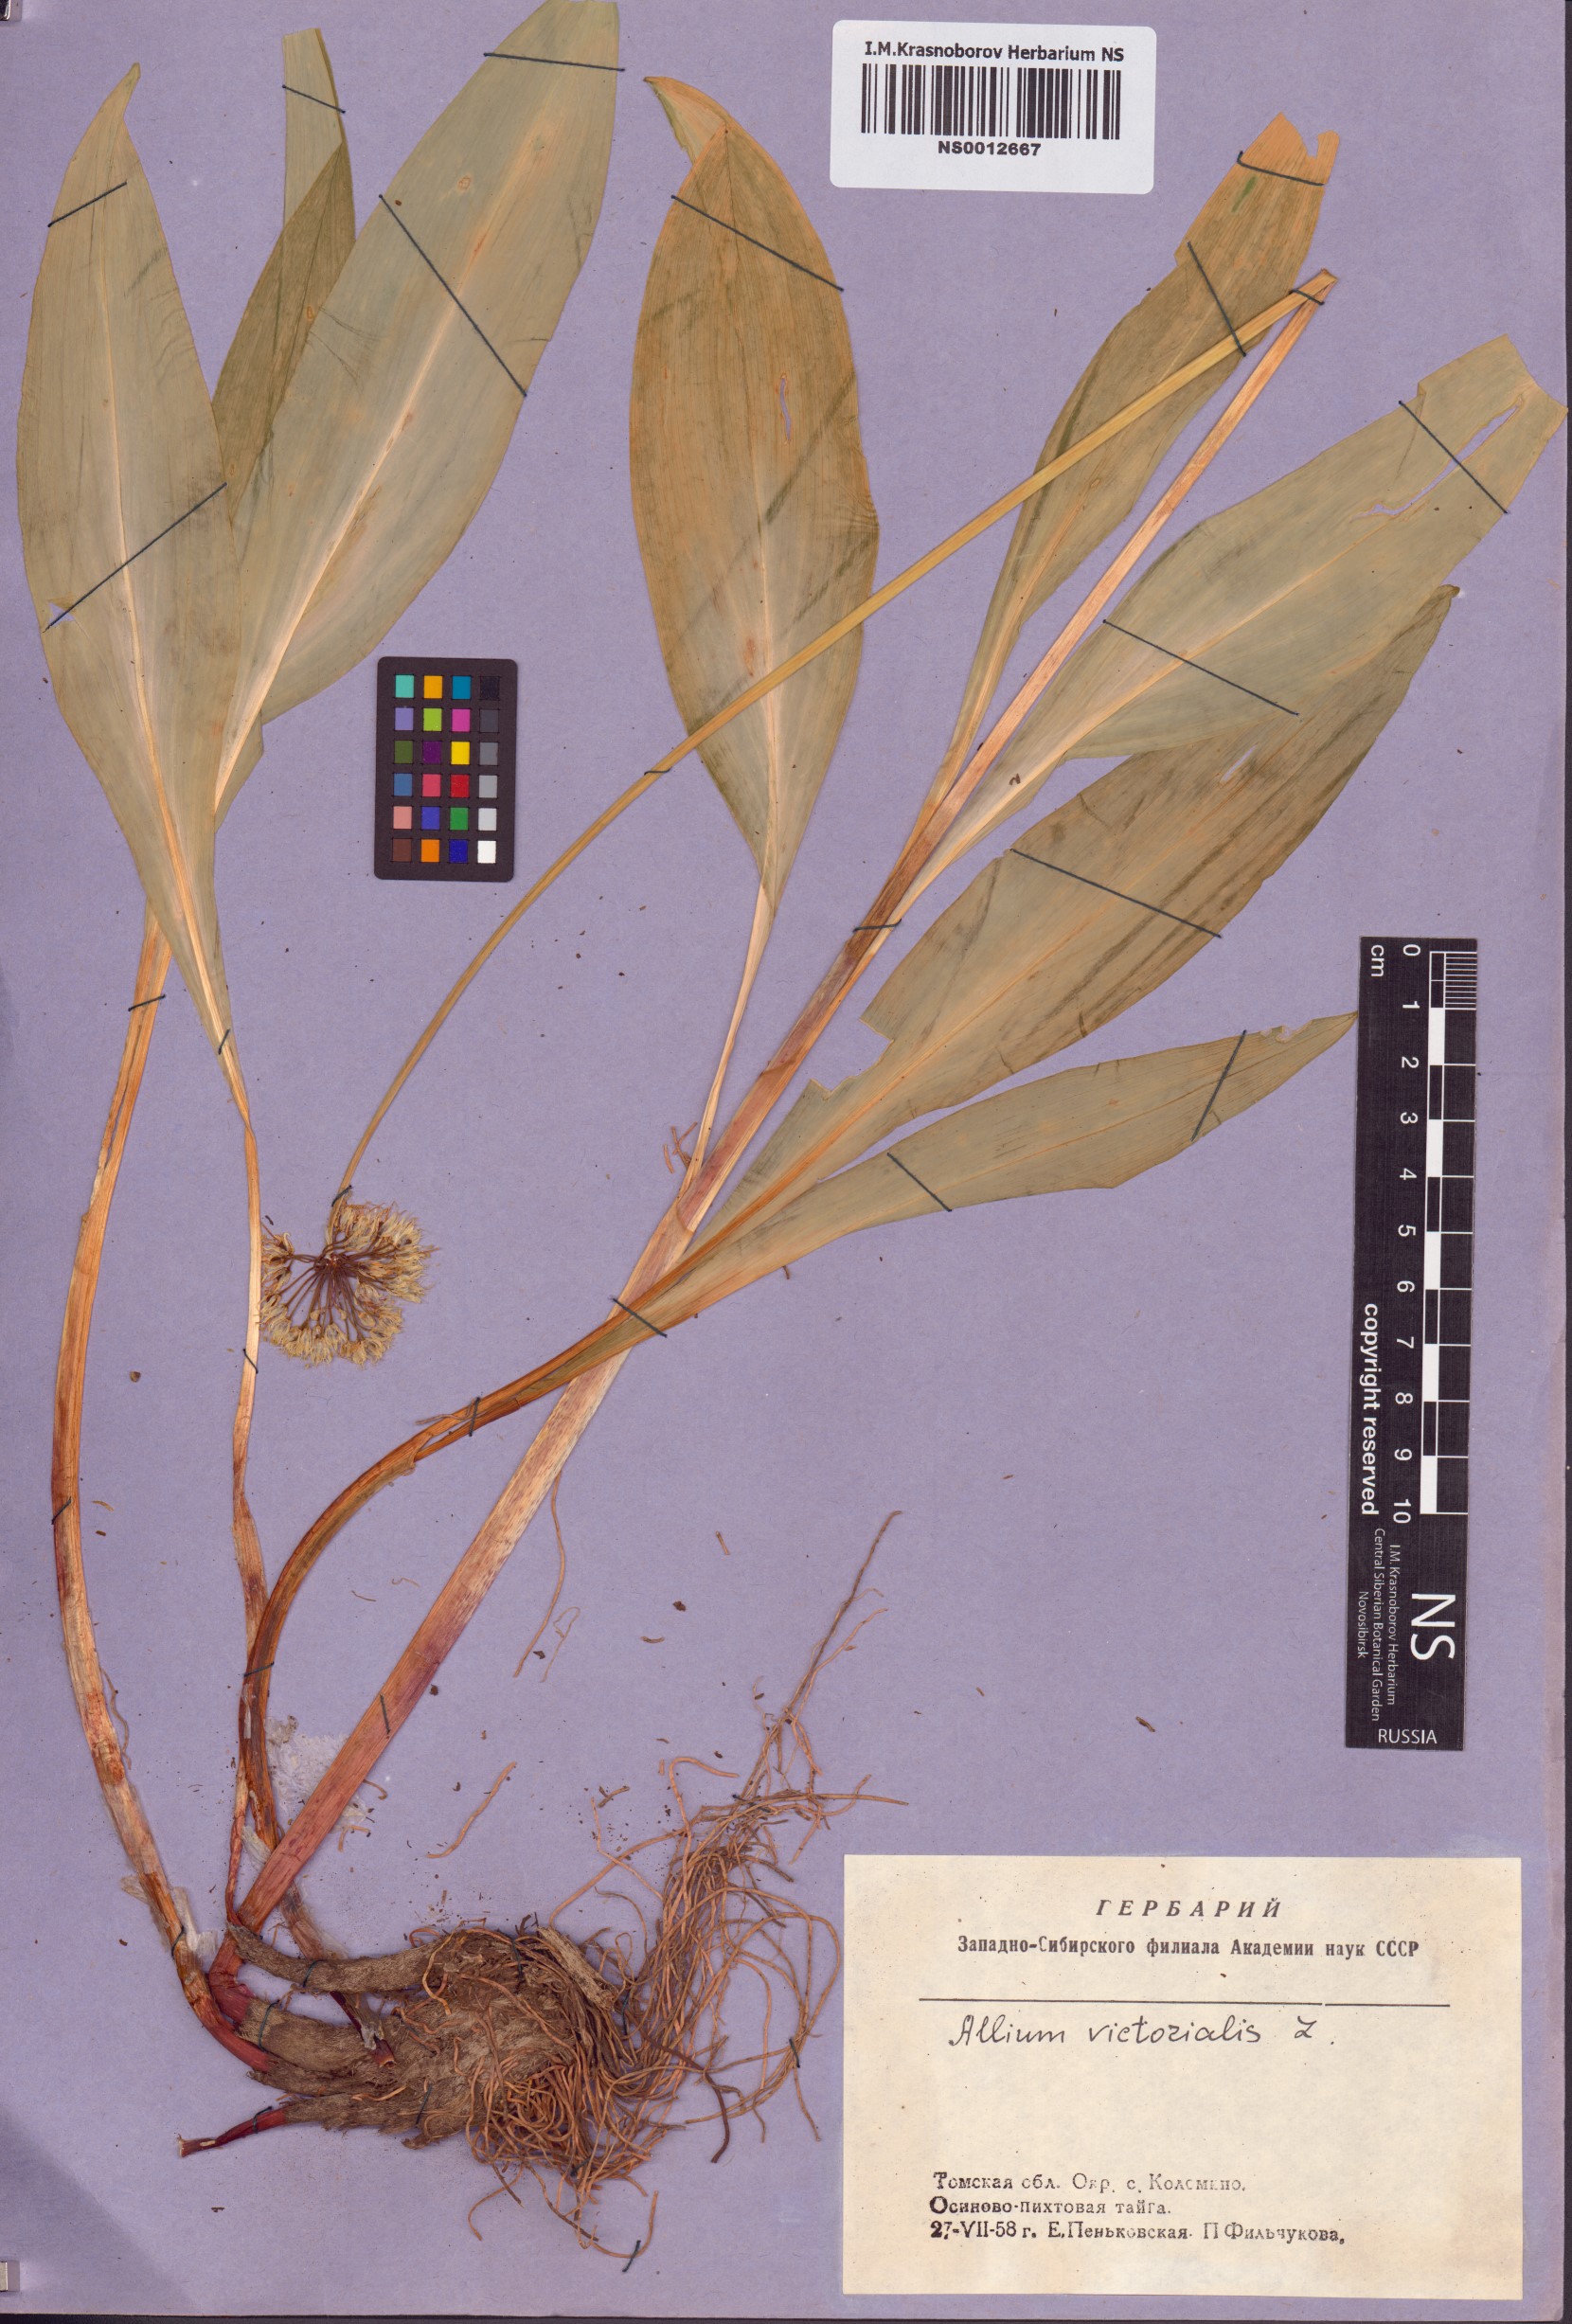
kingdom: Plantae
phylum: Tracheophyta
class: Liliopsida
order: Asparagales
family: Amaryllidaceae
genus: Allium
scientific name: Allium microdictyon
